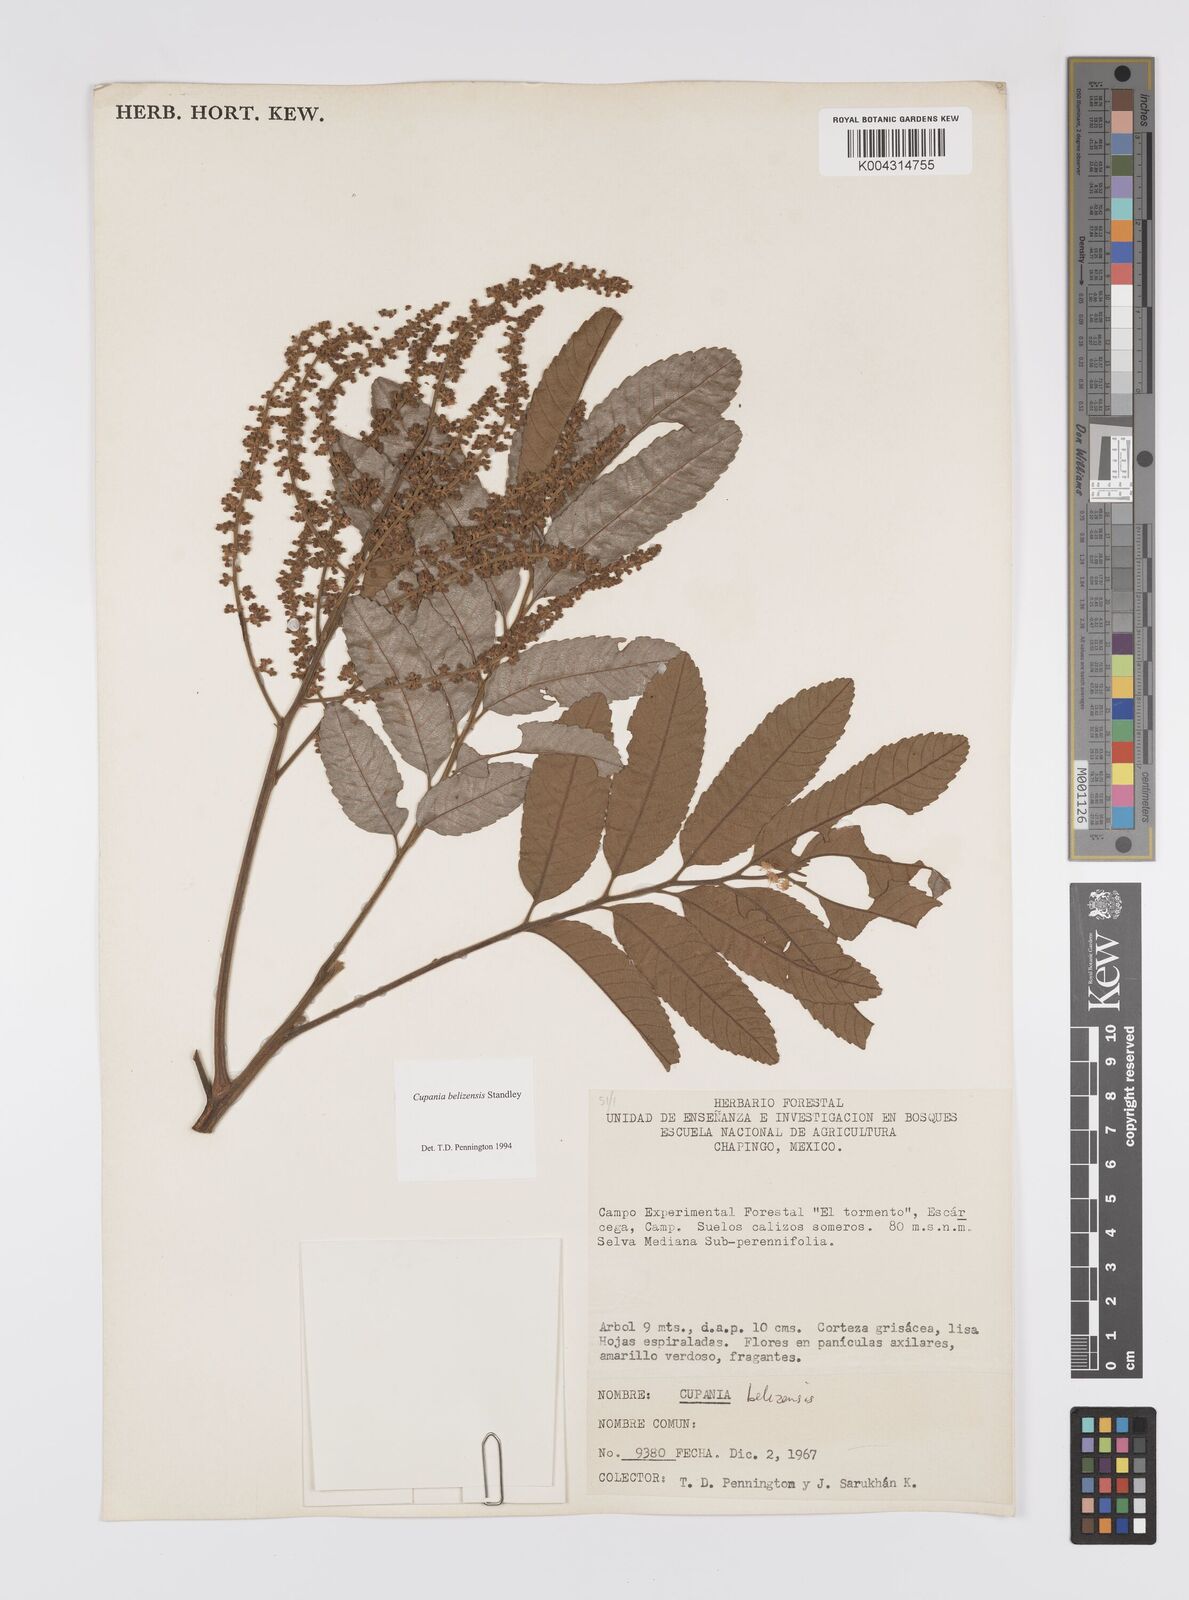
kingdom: Plantae
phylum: Tracheophyta
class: Magnoliopsida
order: Sapindales
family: Sapindaceae
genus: Cupania
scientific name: Cupania belizensis
